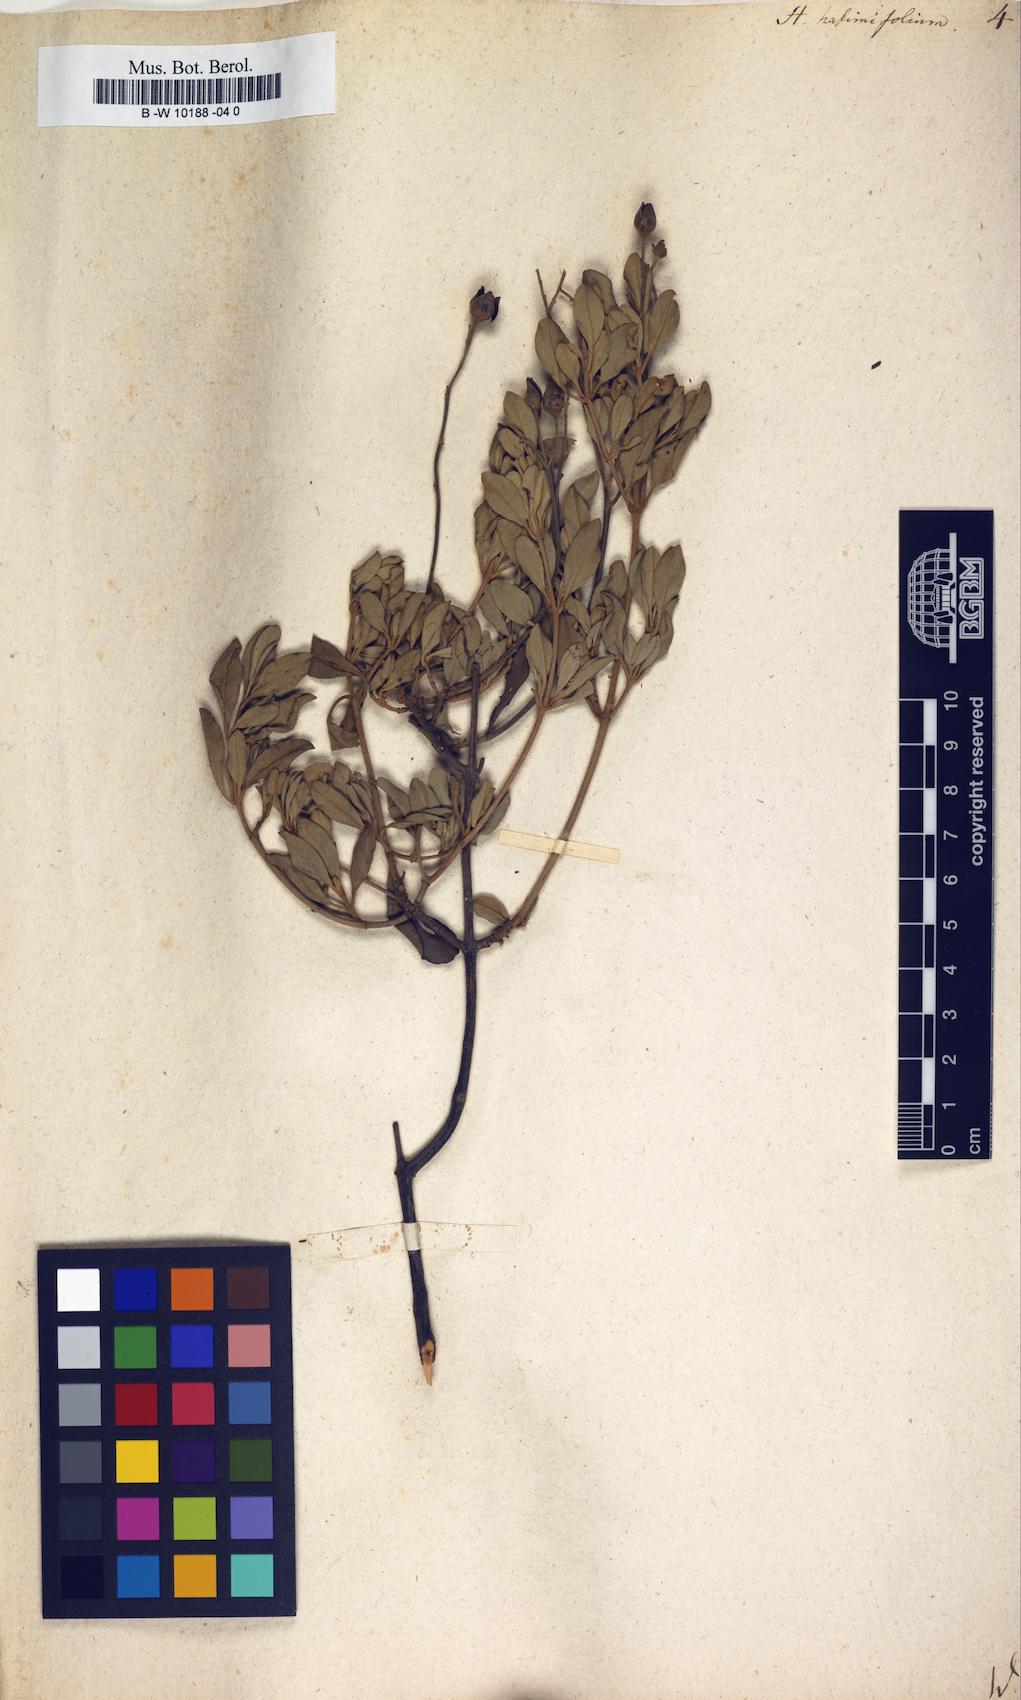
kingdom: Plantae
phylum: Tracheophyta
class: Magnoliopsida
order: Malvales
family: Cistaceae
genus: Halimium
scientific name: Halimium halimifolium
